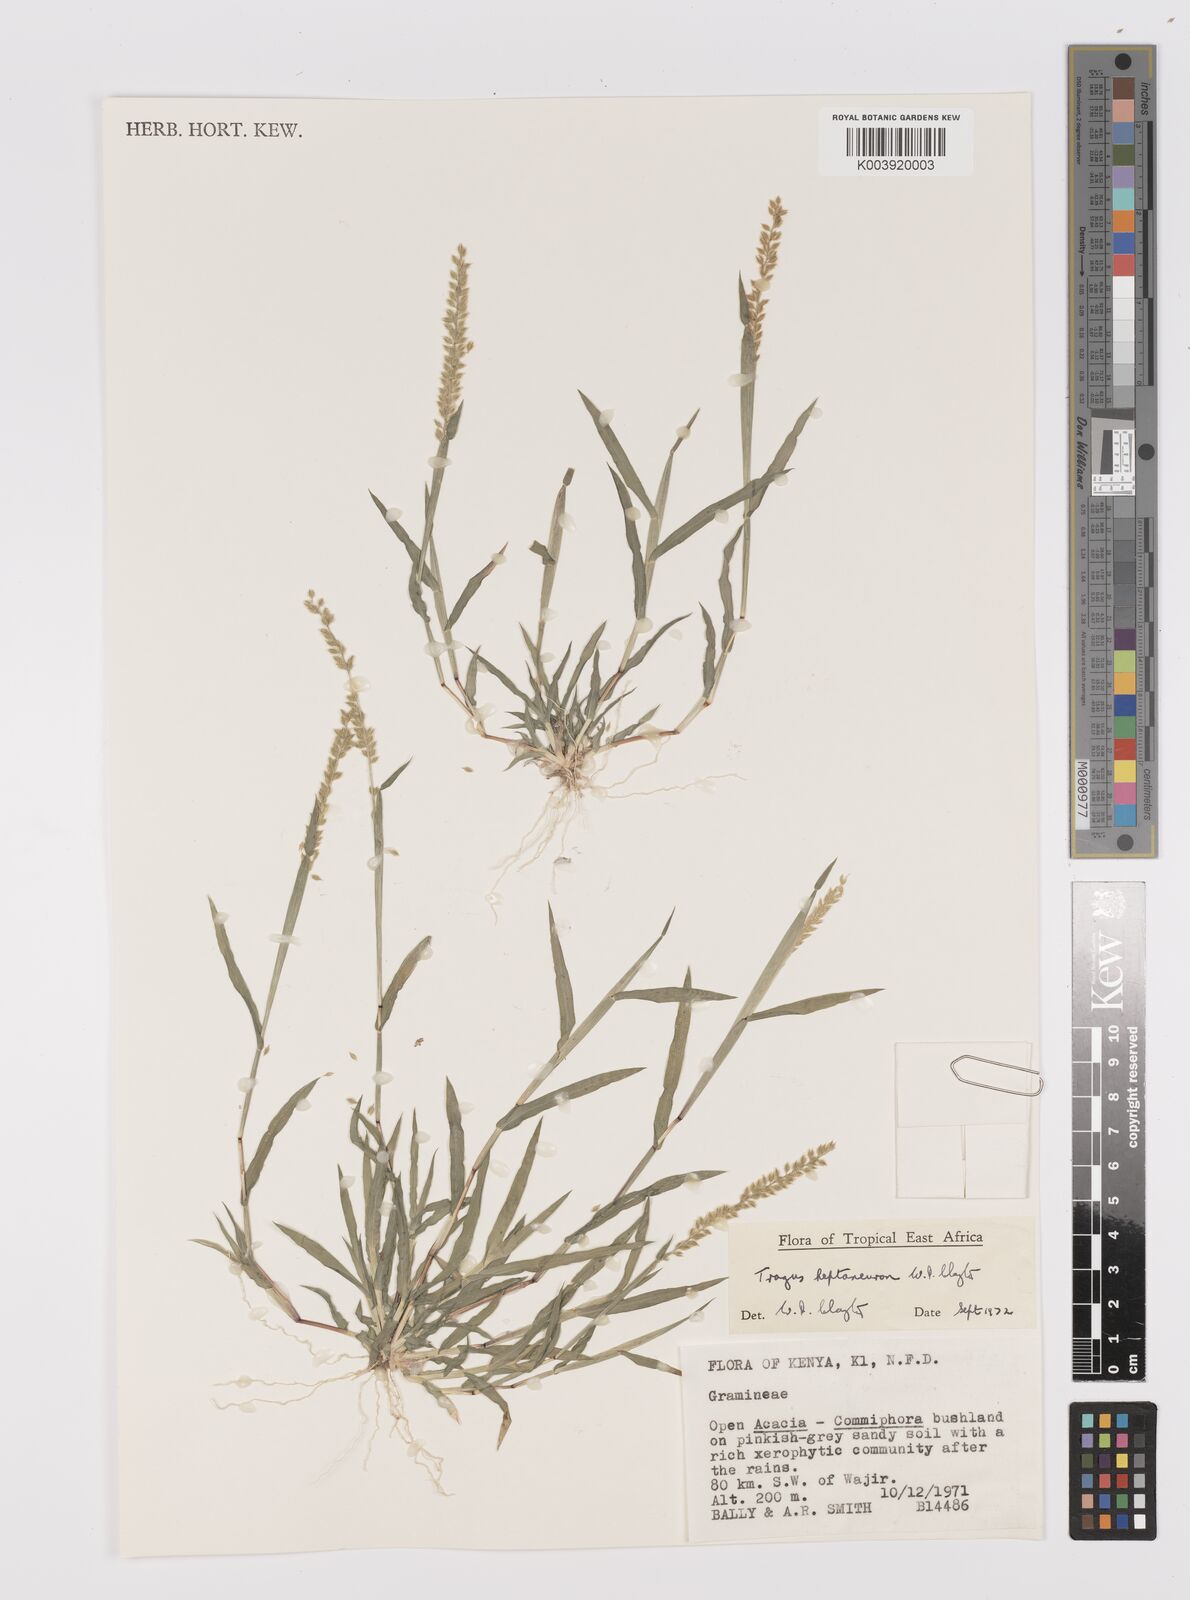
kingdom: Plantae
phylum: Tracheophyta
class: Liliopsida
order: Poales
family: Poaceae
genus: Tragus
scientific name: Tragus heptaneuron
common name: Kenya bur grass
